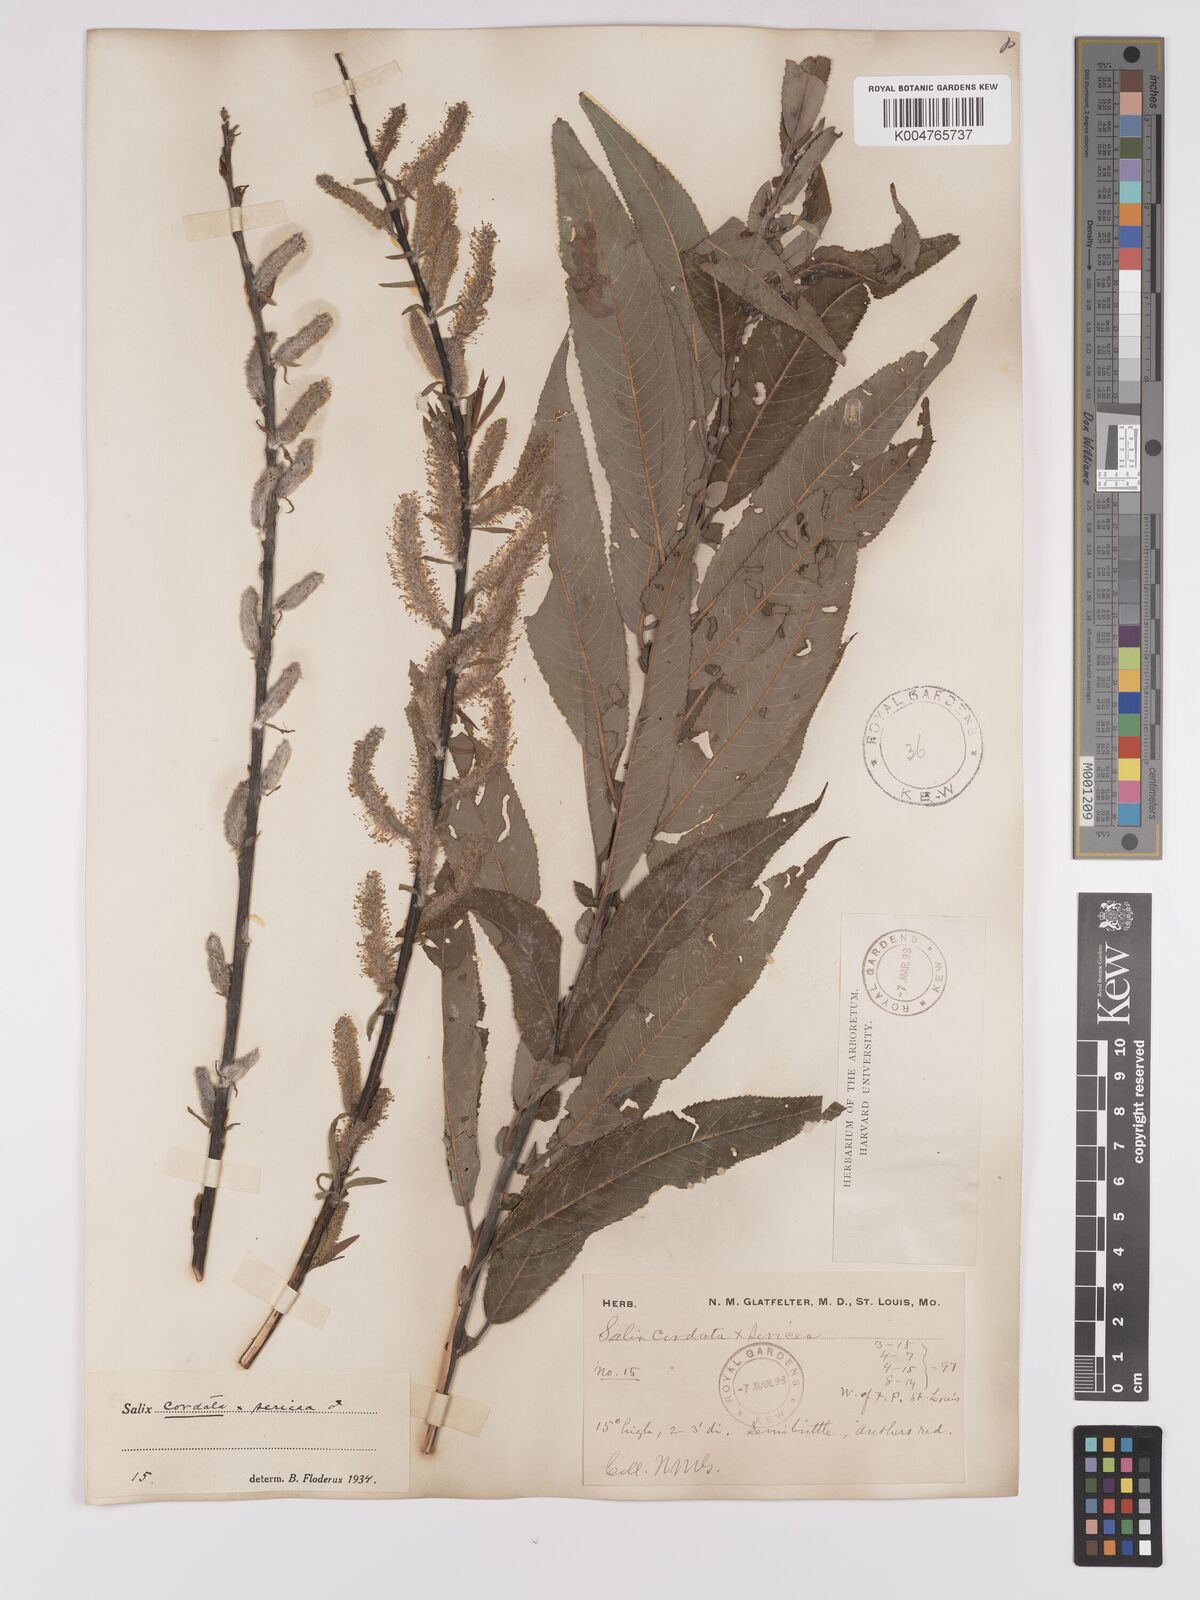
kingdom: Plantae
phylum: Tracheophyta
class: Magnoliopsida
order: Malpighiales
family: Salicaceae
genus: Salix
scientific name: Salix cordata
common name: Heart-leaf willow
